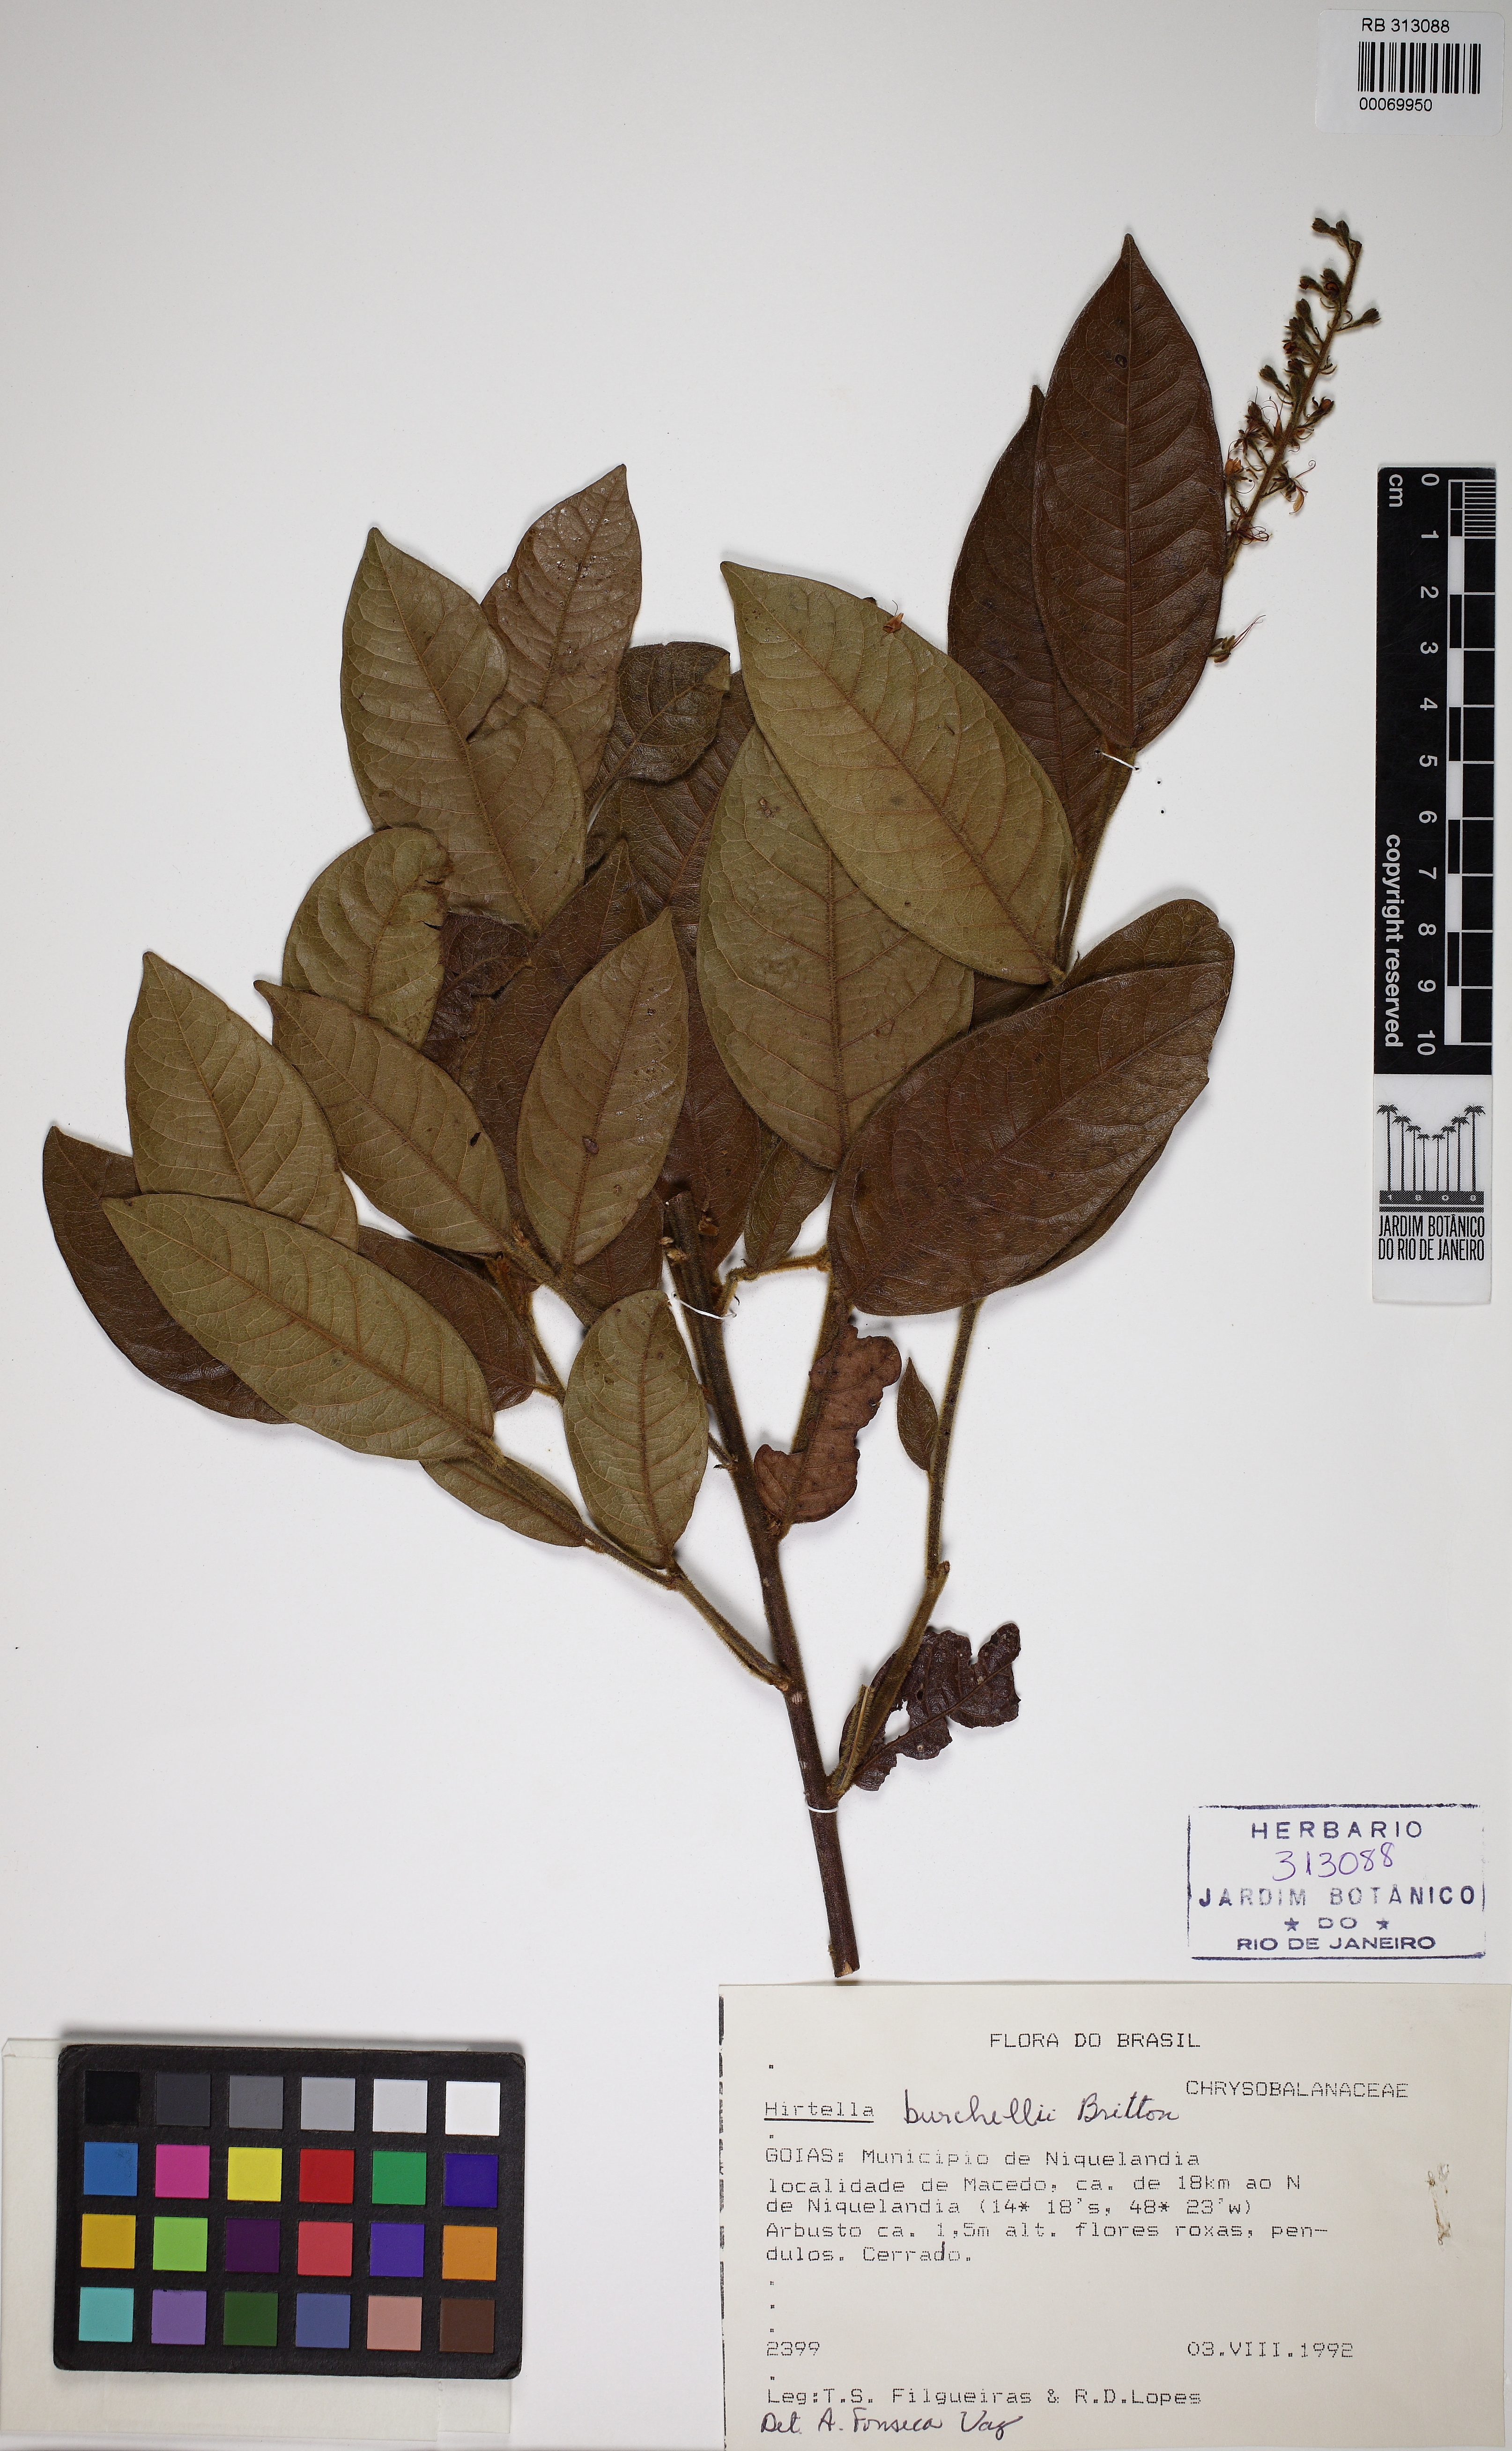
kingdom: Plantae
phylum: Tracheophyta
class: Magnoliopsida
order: Malpighiales
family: Chrysobalanaceae
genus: Hirtella
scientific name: Hirtella burchellii
